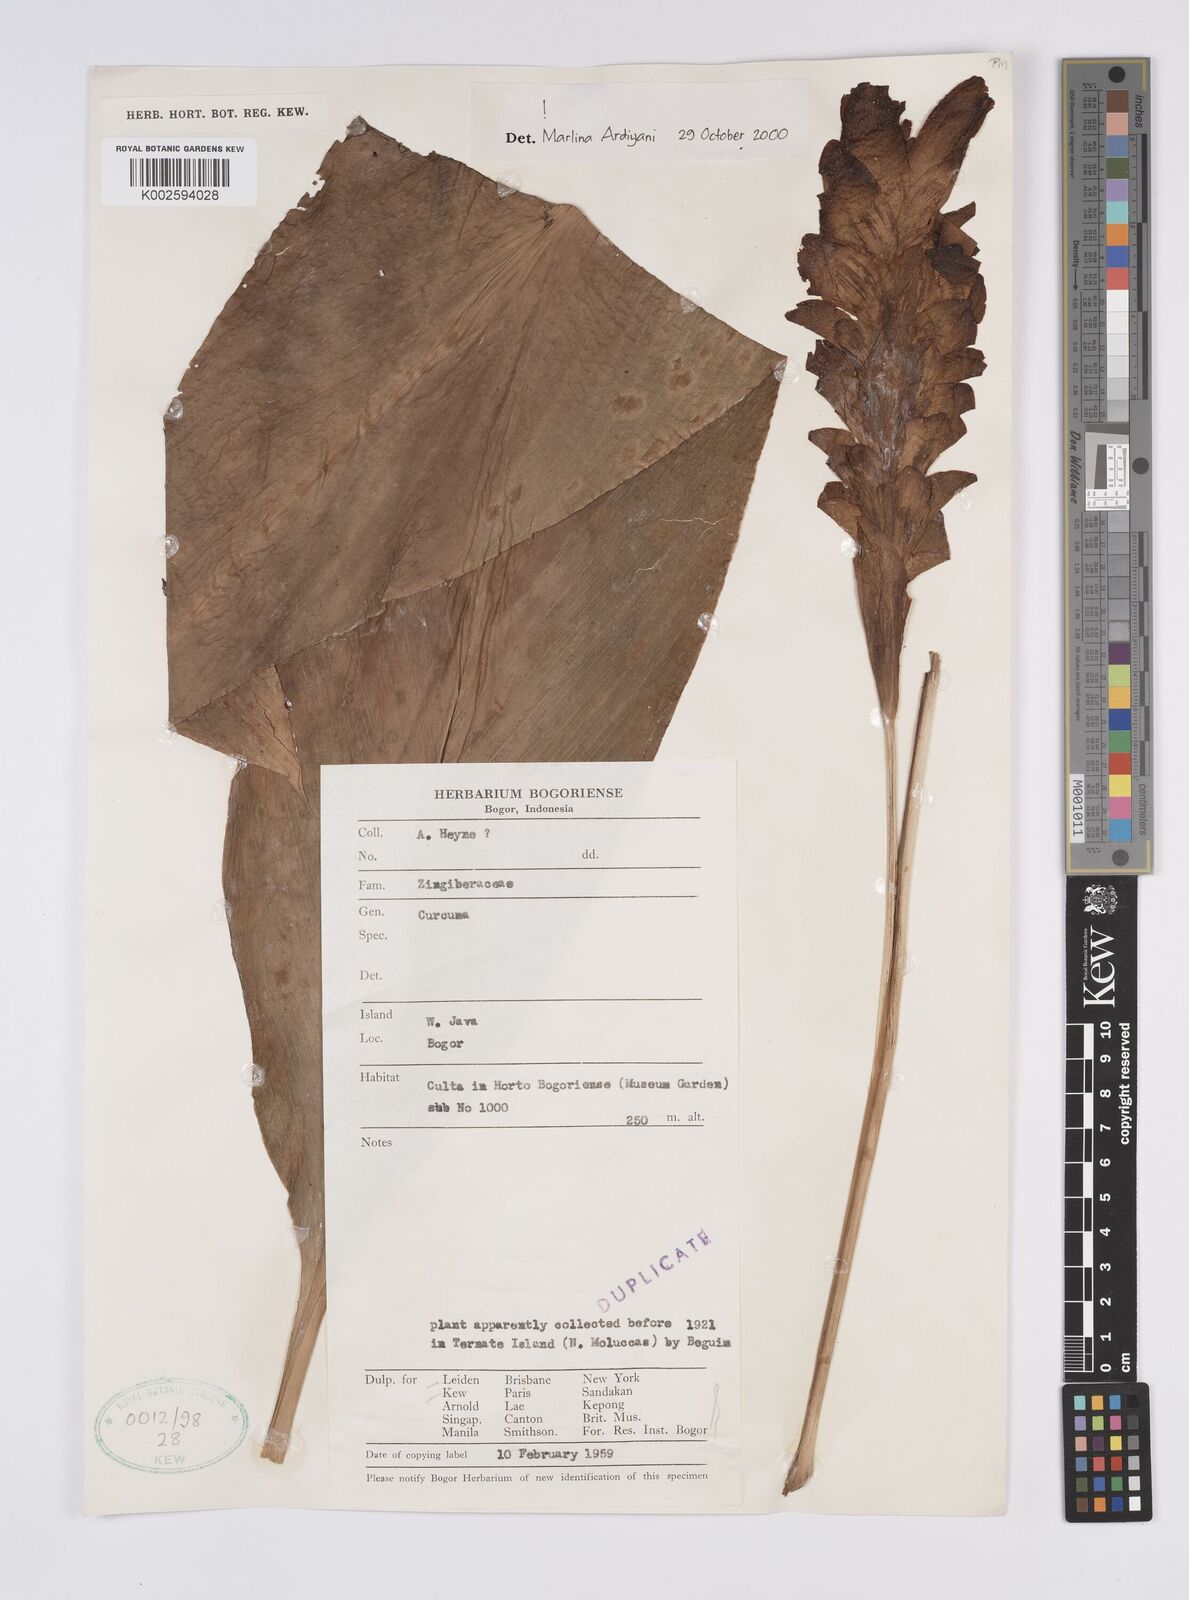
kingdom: Plantae
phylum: Tracheophyta
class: Liliopsida
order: Zingiberales
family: Zingiberaceae
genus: Curcuma
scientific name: Curcuma
